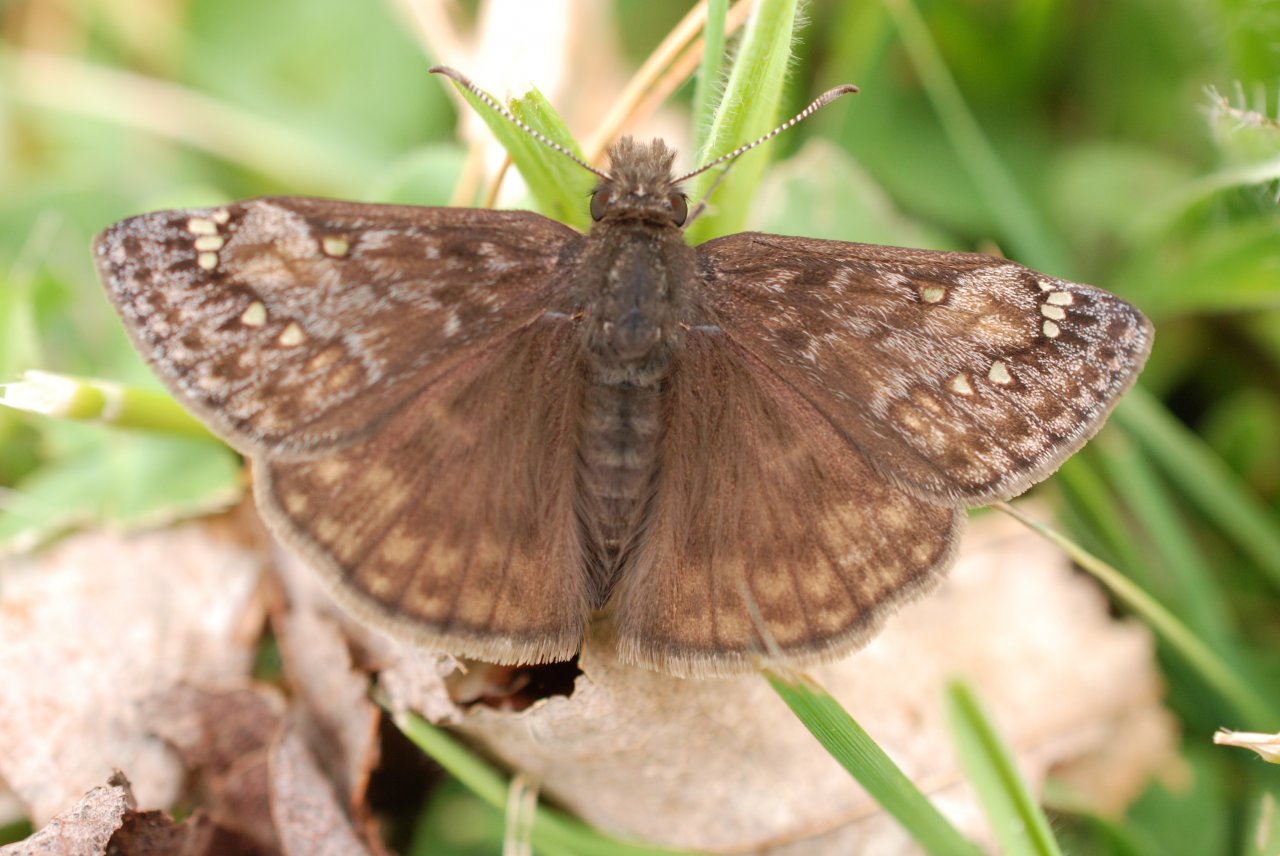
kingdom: Animalia
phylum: Arthropoda
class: Insecta
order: Lepidoptera
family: Hesperiidae
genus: Gesta
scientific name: Gesta
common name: Juvenal's Duskywing
